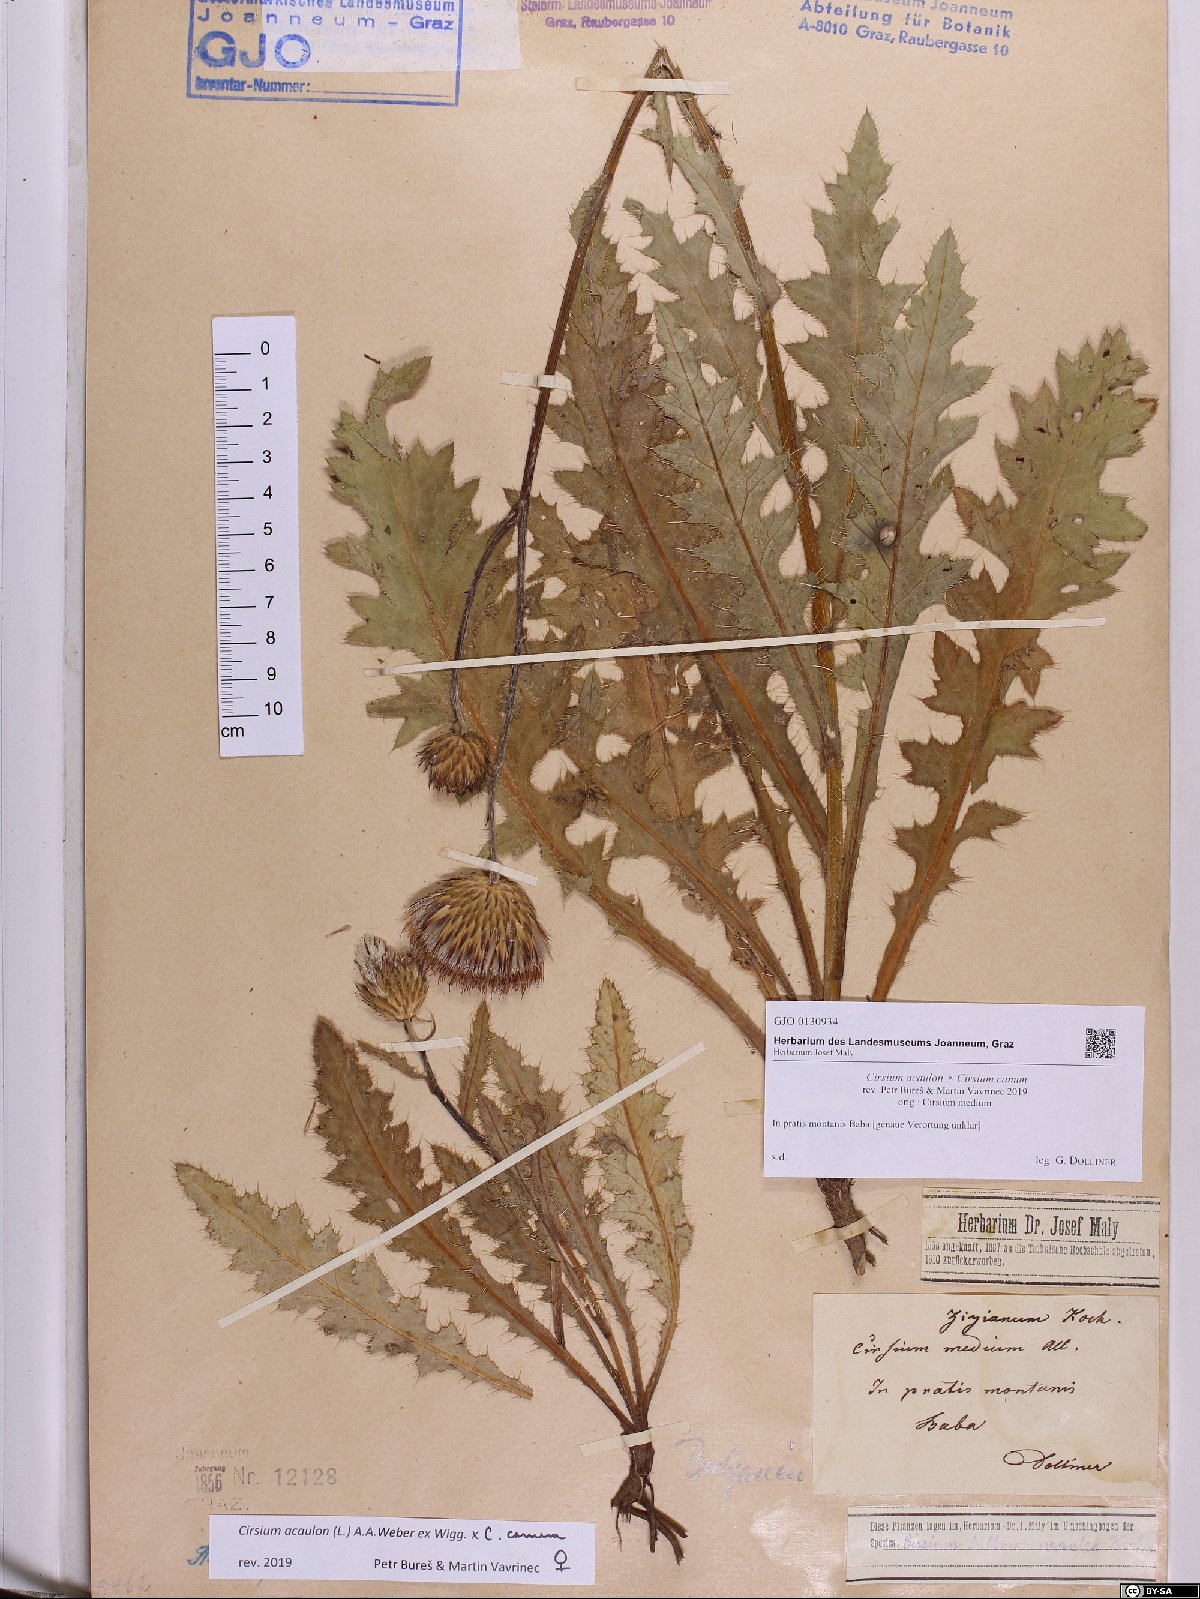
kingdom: Plantae
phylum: Tracheophyta
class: Magnoliopsida
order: Asterales
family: Asteraceae
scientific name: Asteraceae
